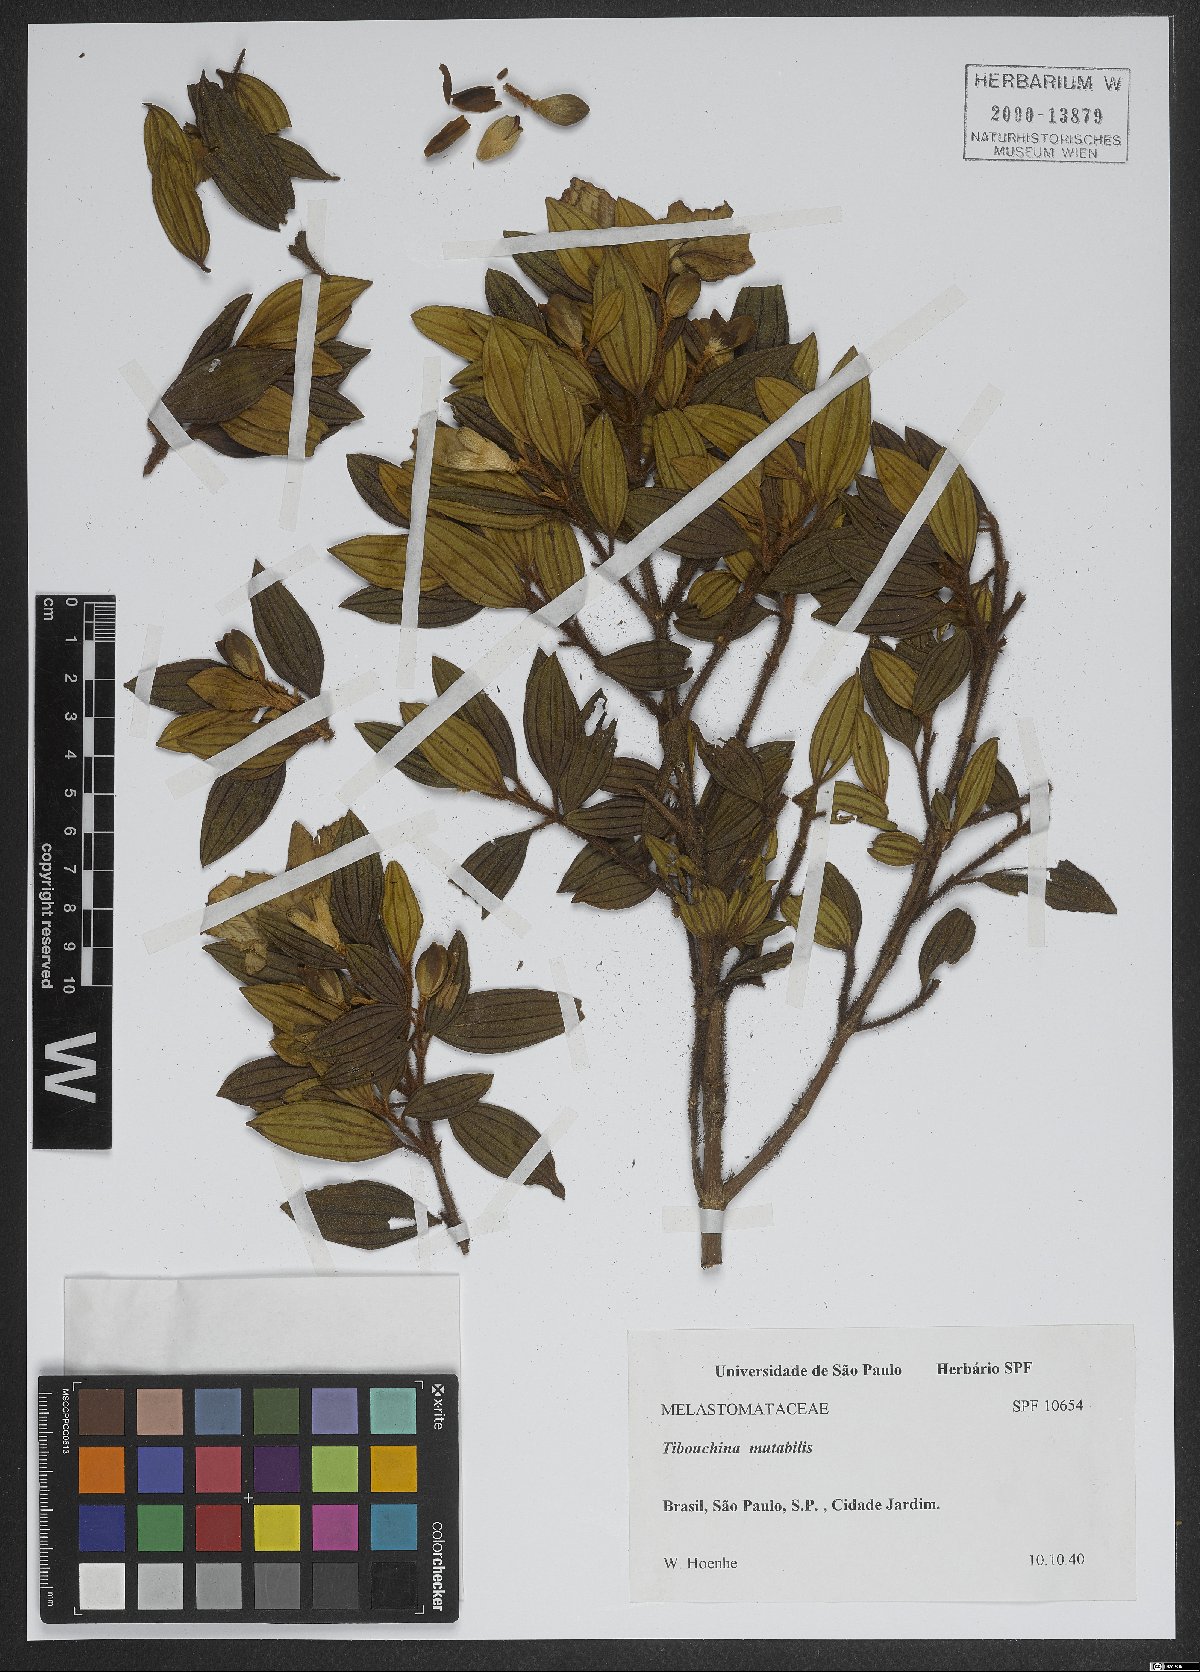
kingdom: Plantae
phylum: Tracheophyta
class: Magnoliopsida
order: Myrtales
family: Melastomataceae
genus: Pleroma
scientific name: Pleroma mutabile
